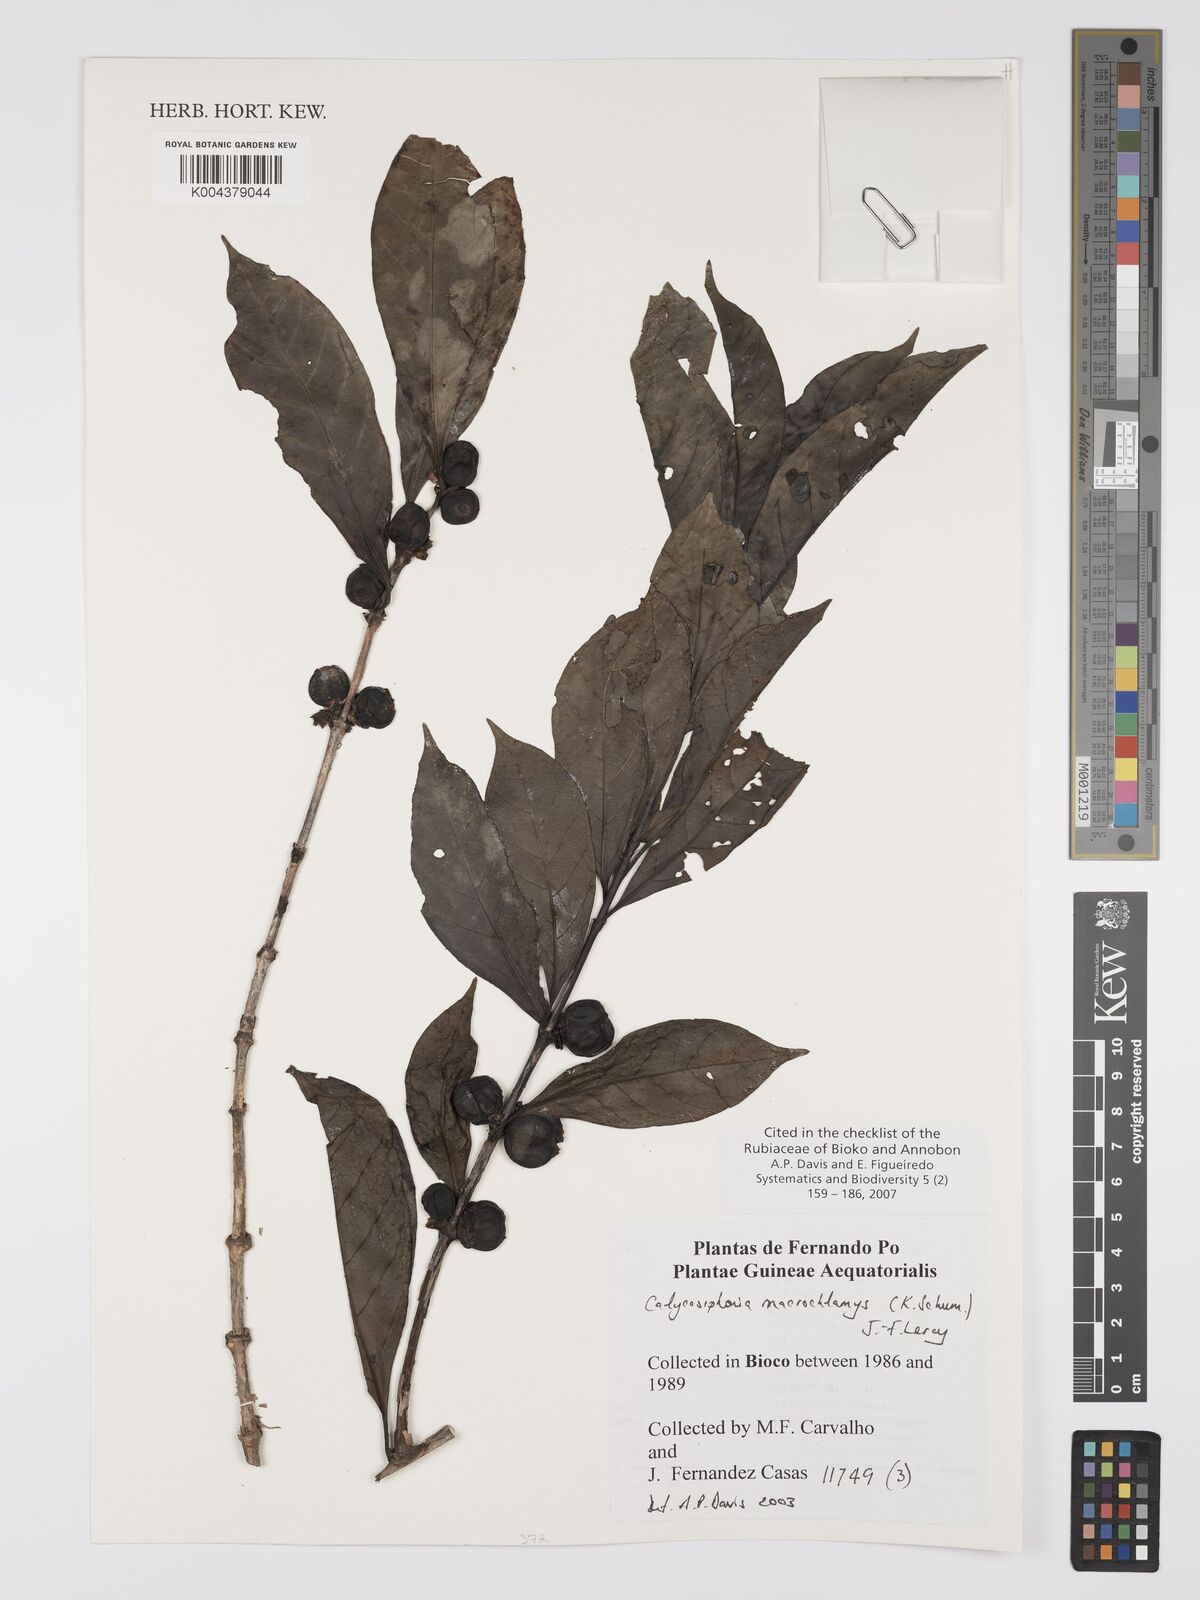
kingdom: Plantae
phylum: Tracheophyta
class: Magnoliopsida
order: Gentianales
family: Rubiaceae
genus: Calycosiphonia
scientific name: Calycosiphonia macrochlamys
